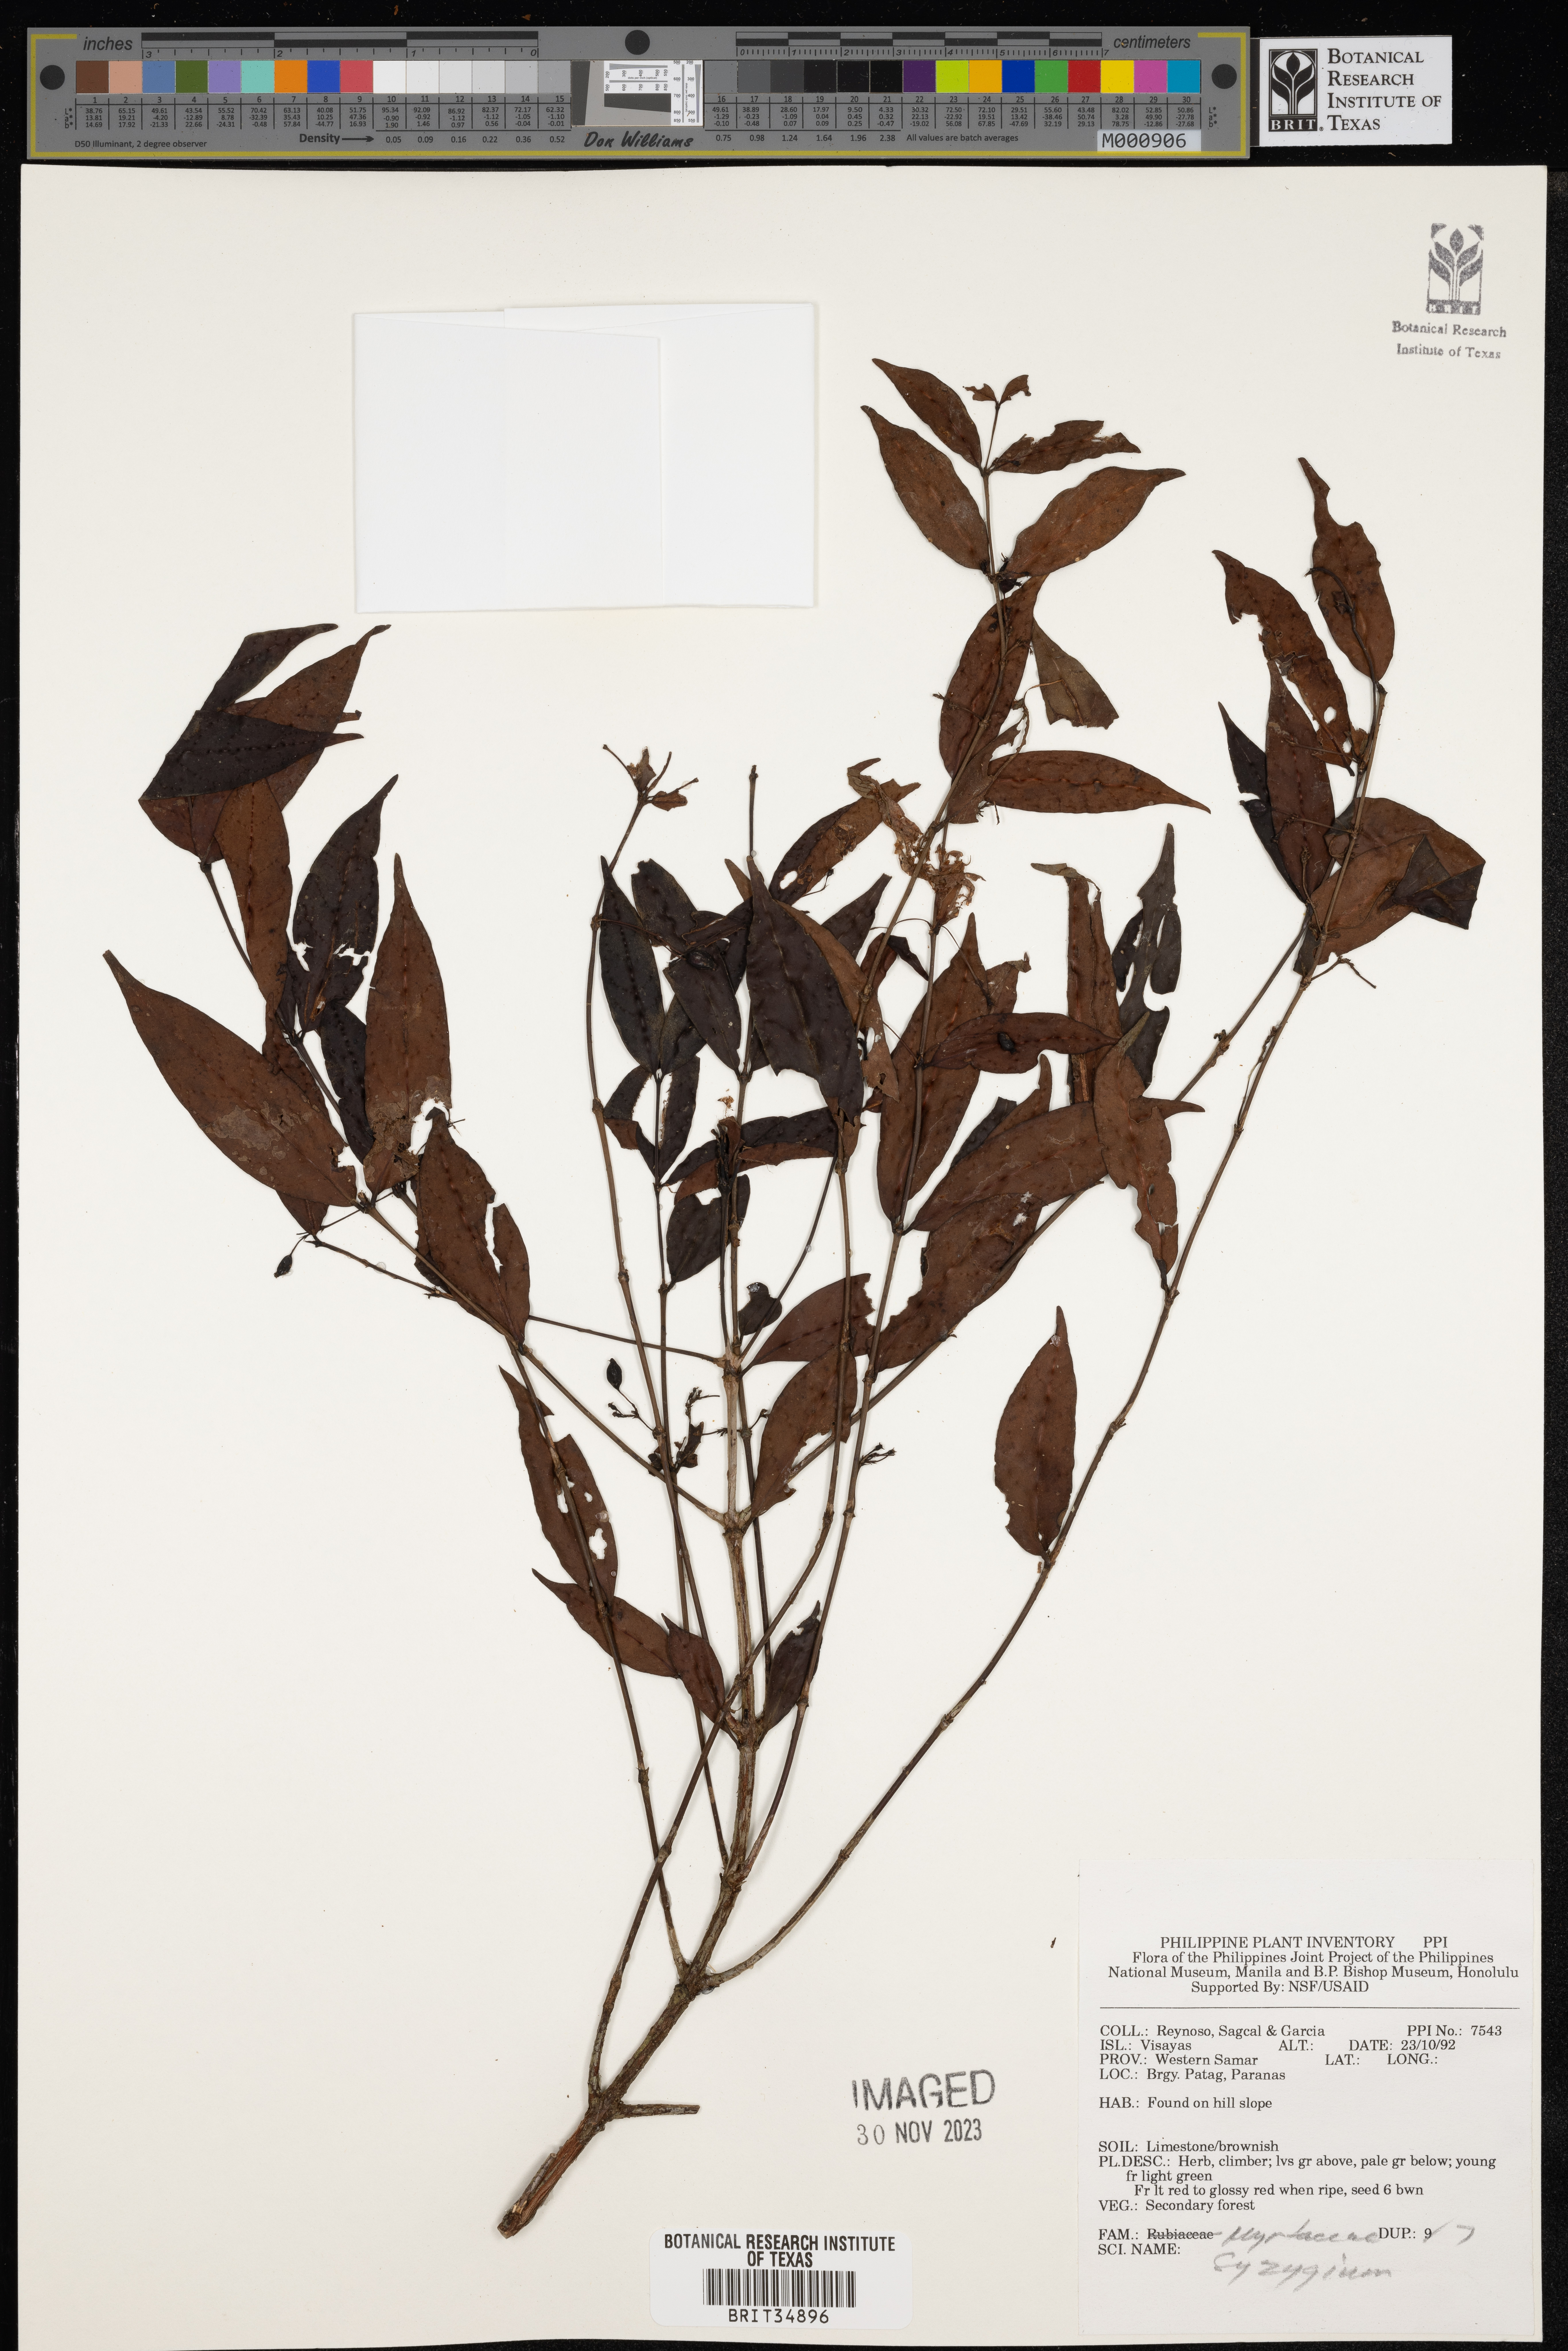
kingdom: Plantae
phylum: Tracheophyta
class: Magnoliopsida
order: Myrtales
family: Myrtaceae
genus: Syzygium
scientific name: Syzygium
